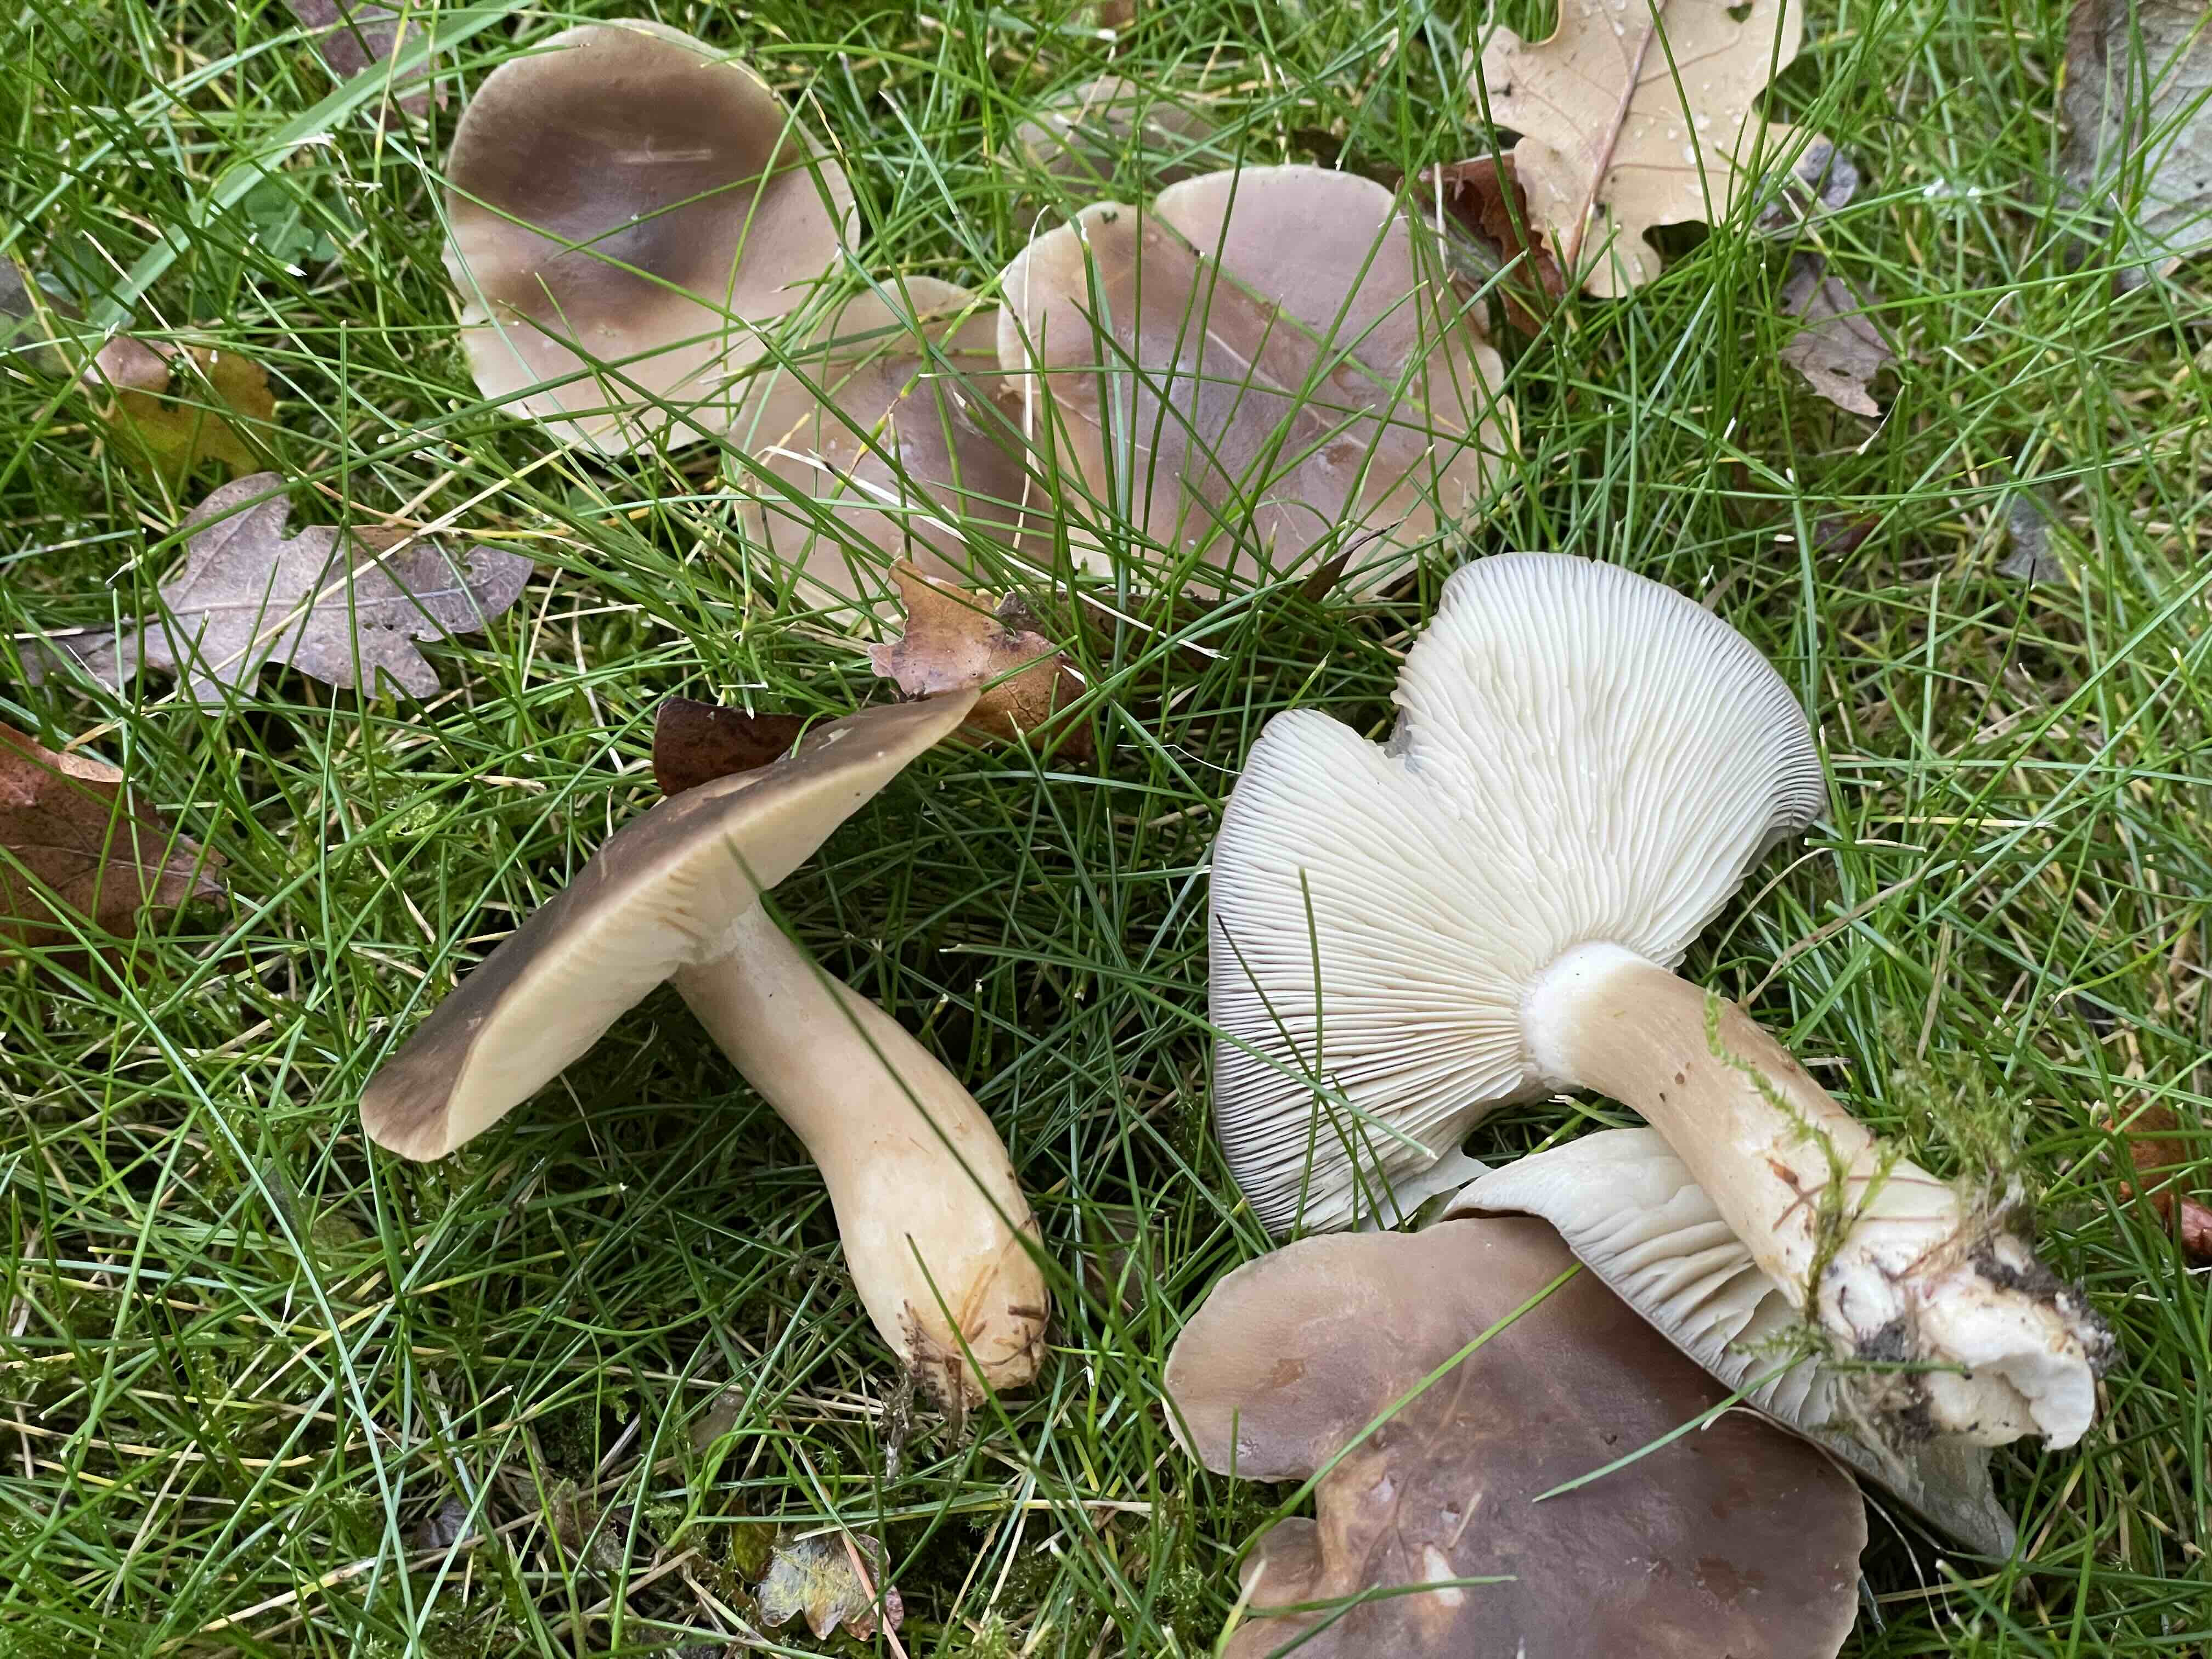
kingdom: Fungi
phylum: Basidiomycota
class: Agaricomycetes
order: Agaricales
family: Lyophyllaceae
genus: Lyophyllum
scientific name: Lyophyllum decastes
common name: røggrå gråblad
